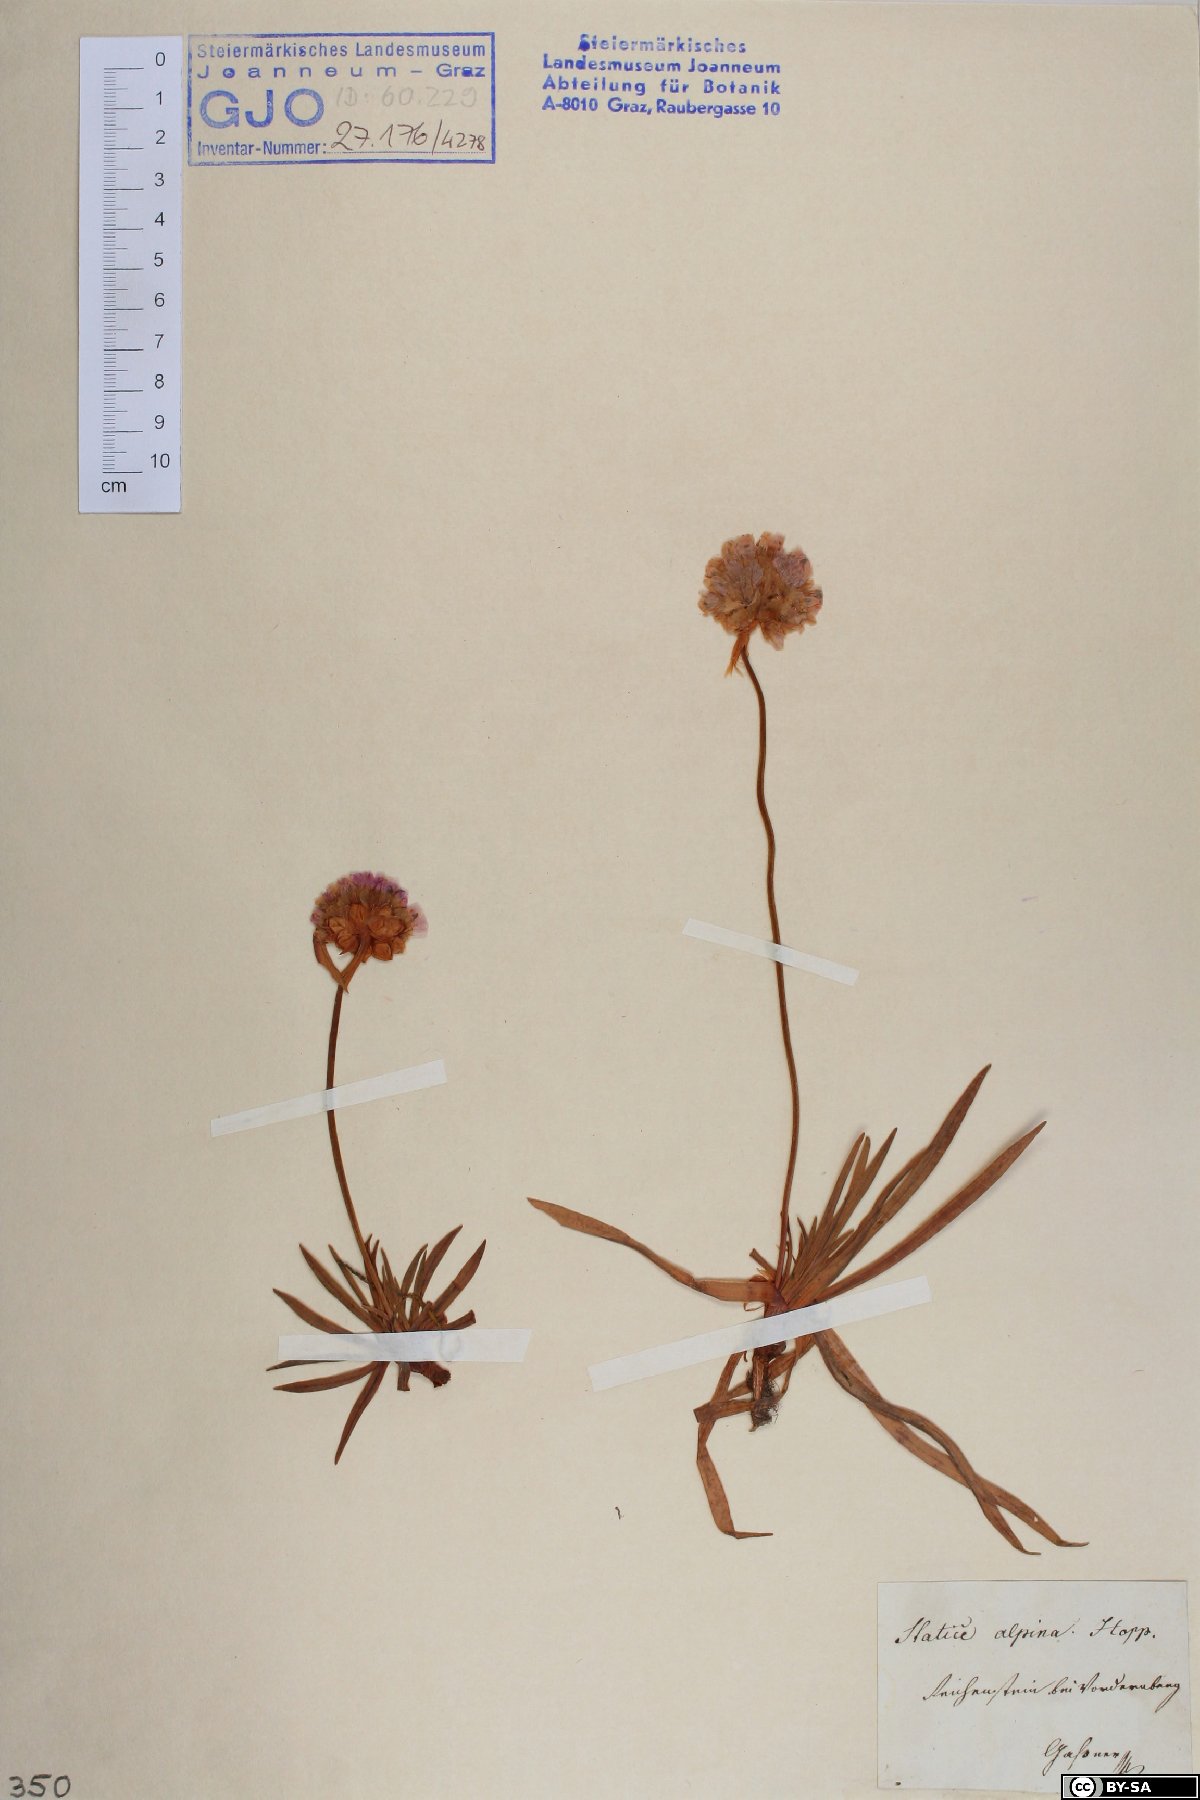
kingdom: Plantae
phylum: Tracheophyta
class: Magnoliopsida
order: Caryophyllales
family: Plumbaginaceae
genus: Armeria
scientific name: Armeria alpina
